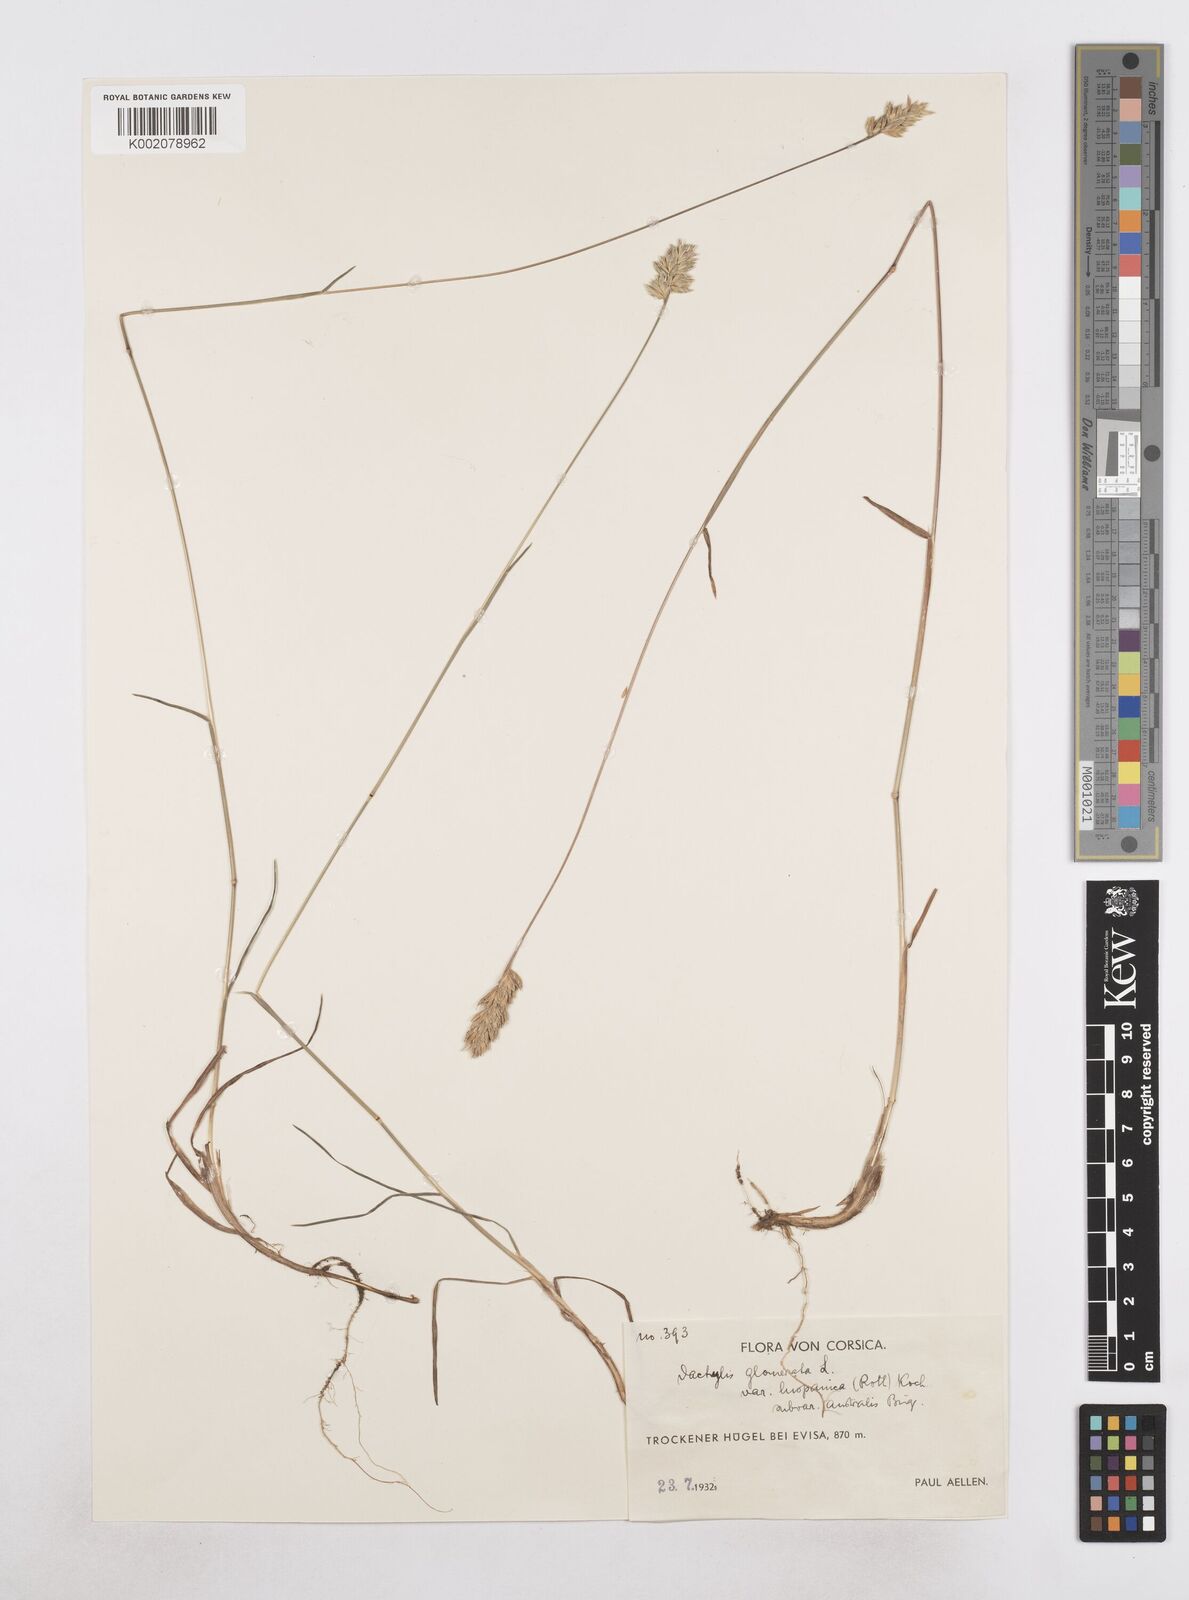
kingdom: Plantae
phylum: Tracheophyta
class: Liliopsida
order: Poales
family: Poaceae
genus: Dactylis
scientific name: Dactylis glomerata
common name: Orchardgrass
